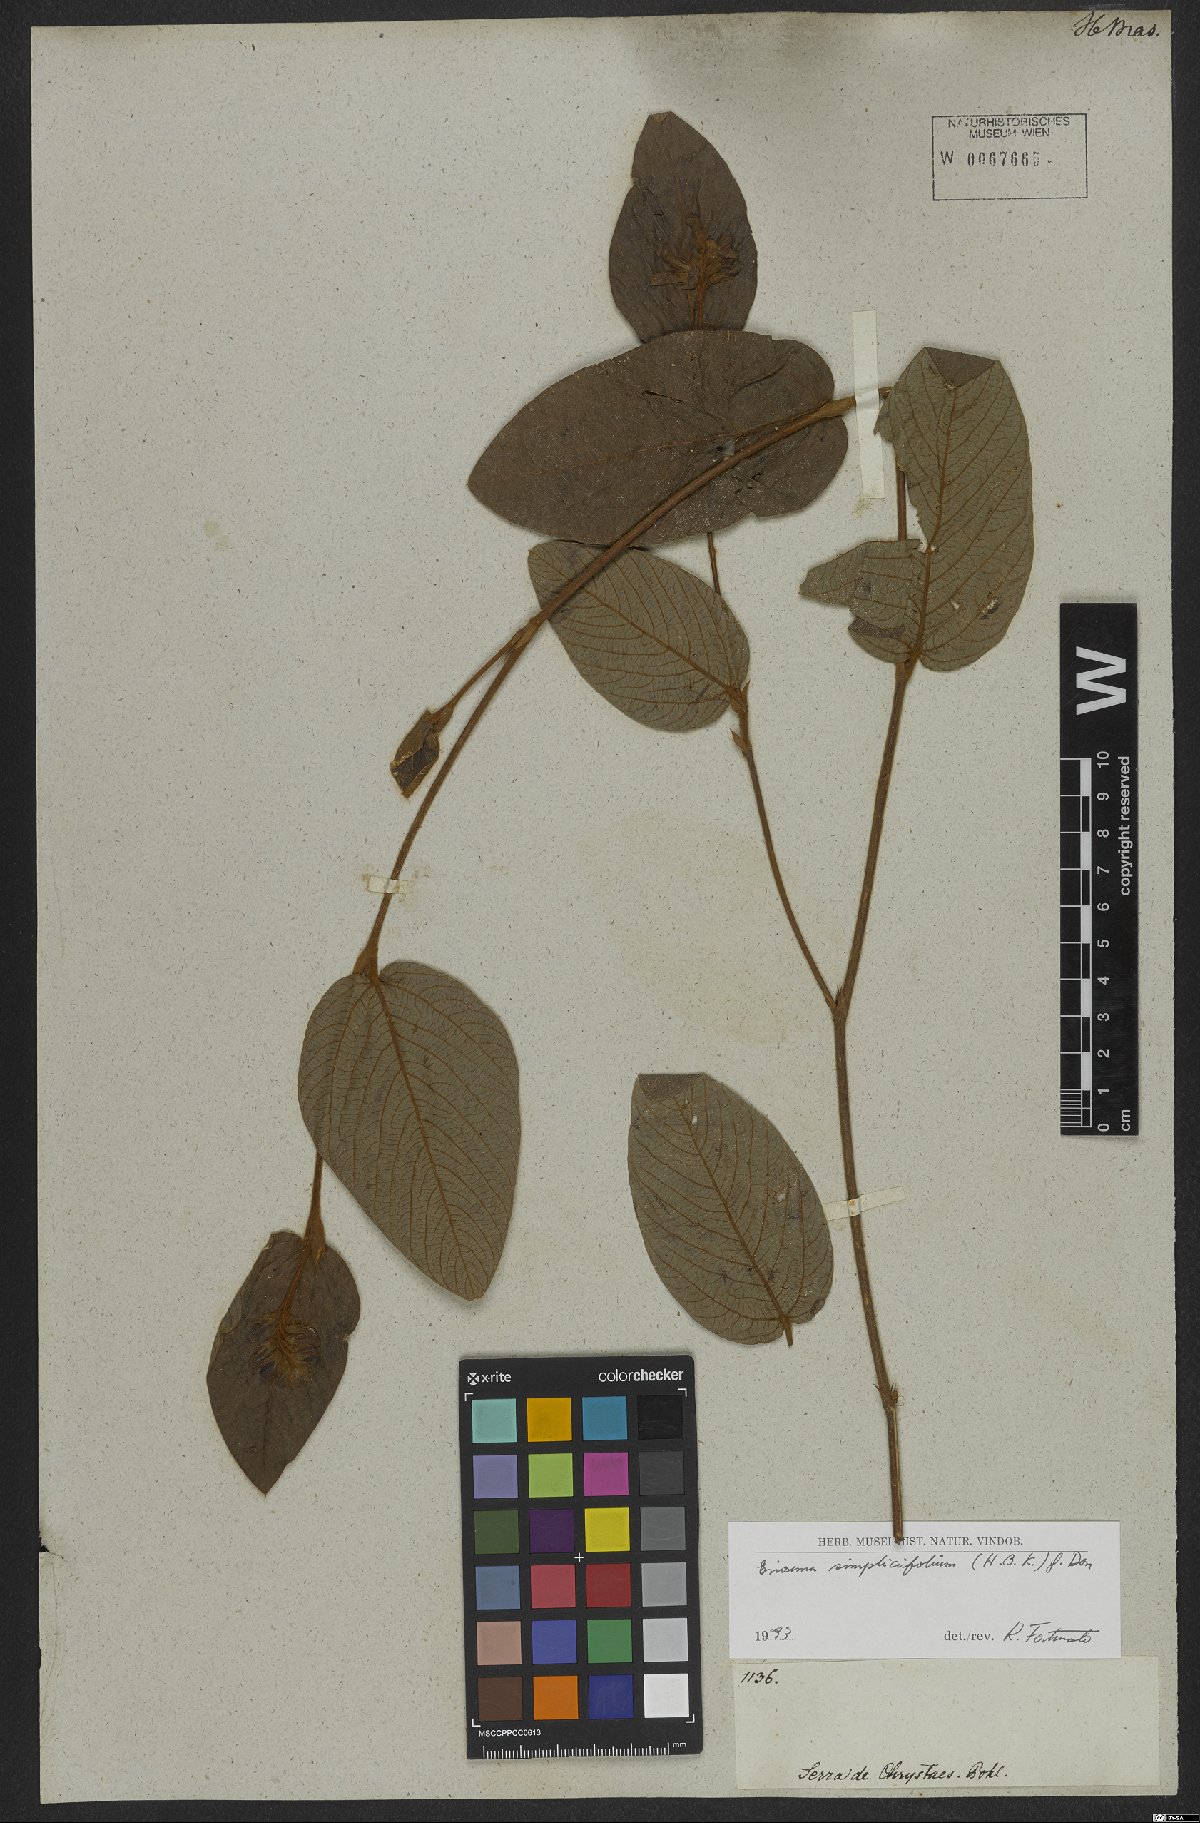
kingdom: Plantae
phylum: Tracheophyta
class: Magnoliopsida
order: Fabales
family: Fabaceae
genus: Eriosema
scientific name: Eriosema simplicifolium
